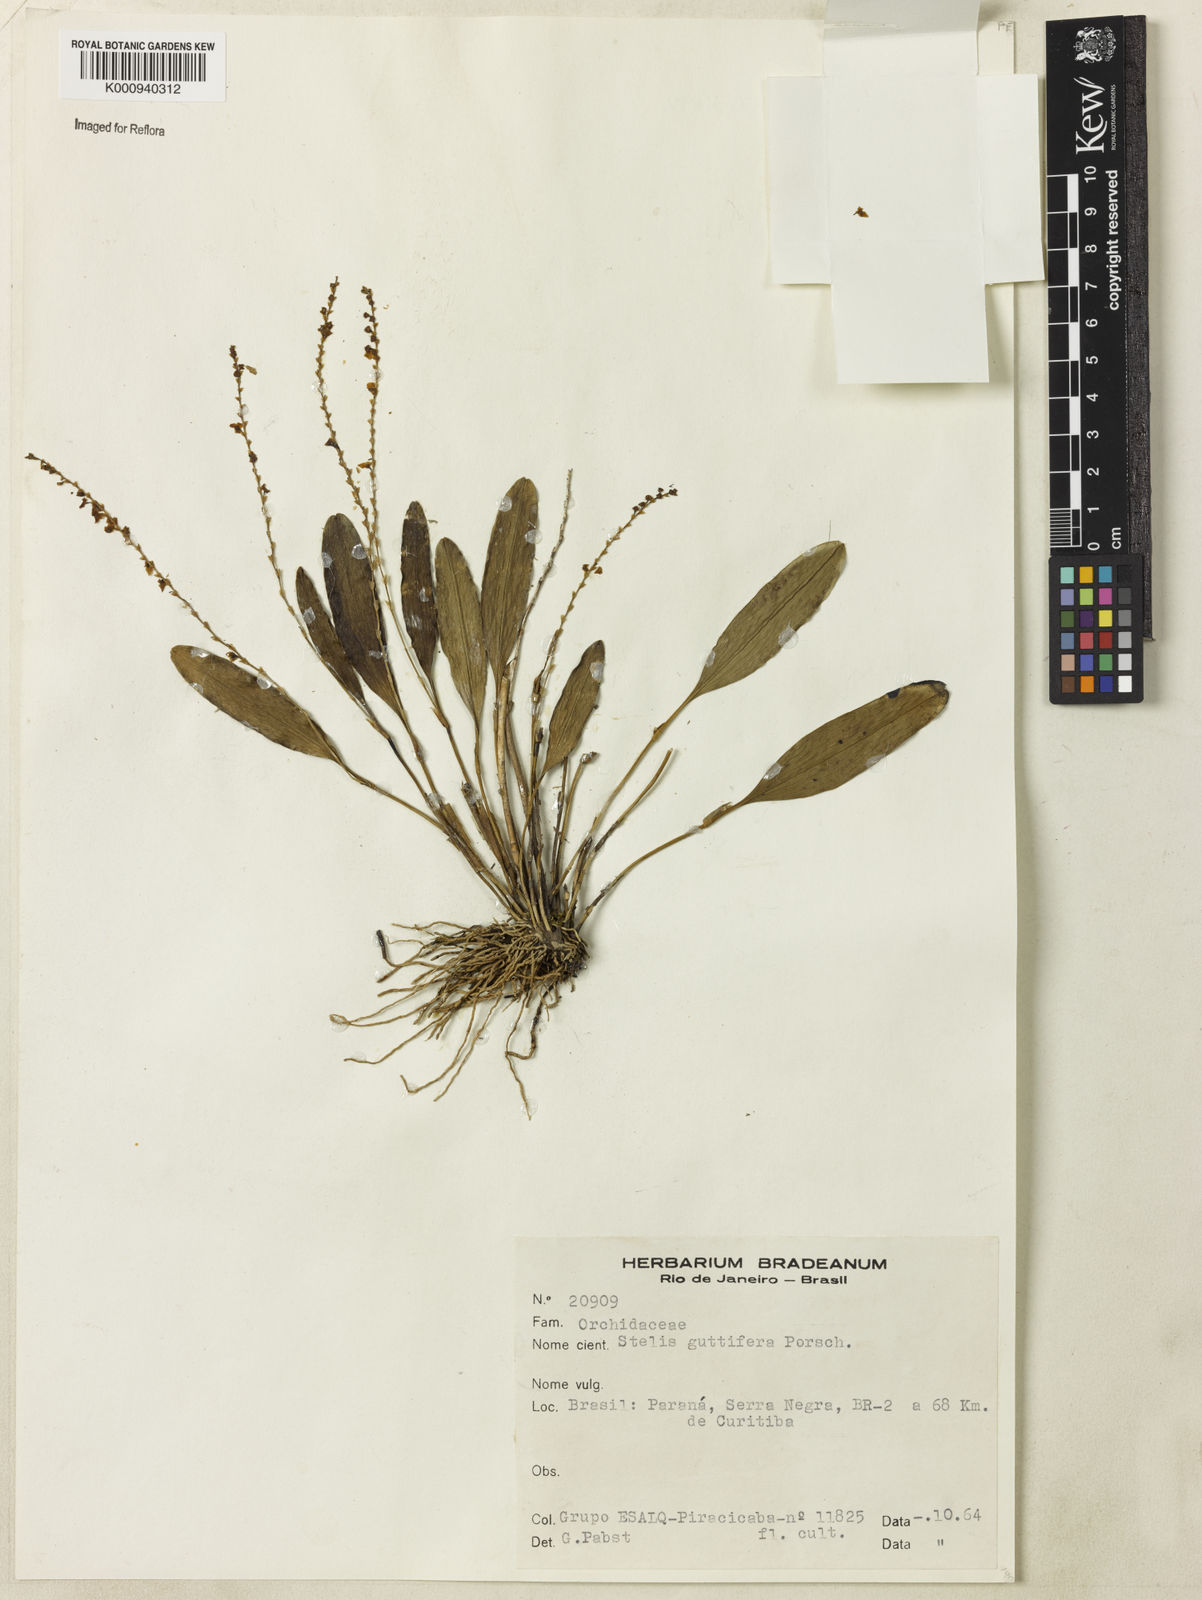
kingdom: Plantae
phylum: Tracheophyta
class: Liliopsida
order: Asparagales
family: Orchidaceae
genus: Stelis
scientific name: Stelis grandiflora
